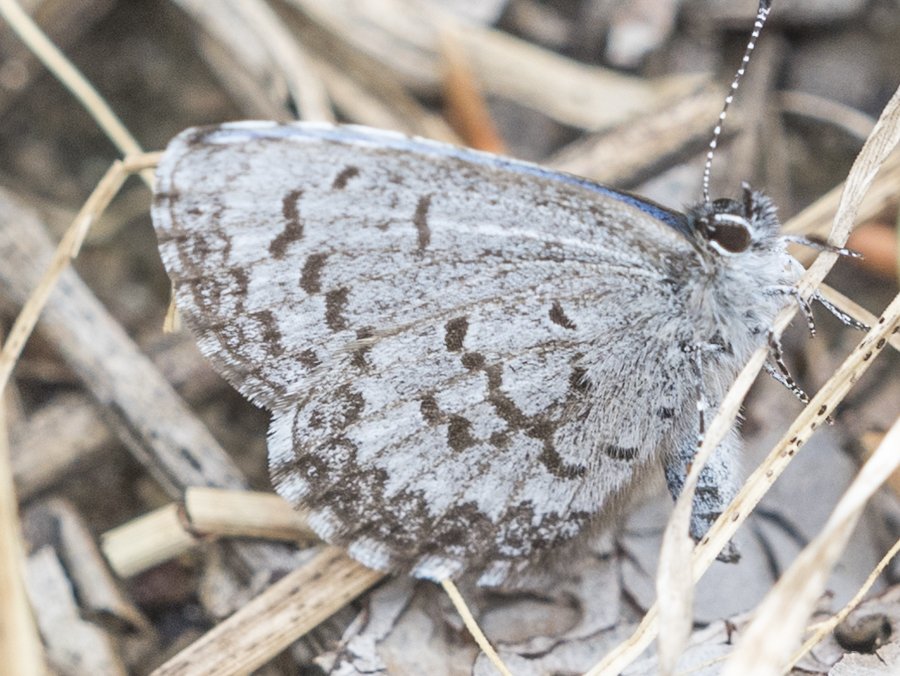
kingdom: Animalia
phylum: Arthropoda
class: Insecta
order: Lepidoptera
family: Lycaenidae
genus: Celastrina
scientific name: Celastrina lucia
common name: Northern Spring Azure
